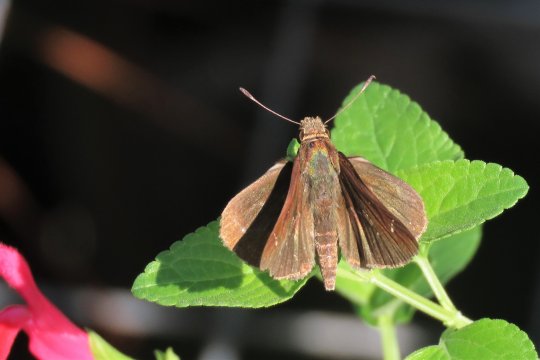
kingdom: Animalia
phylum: Arthropoda
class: Insecta
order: Lepidoptera
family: Hesperiidae
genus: Lerema
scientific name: Lerema accius
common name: Clouded Skipper
